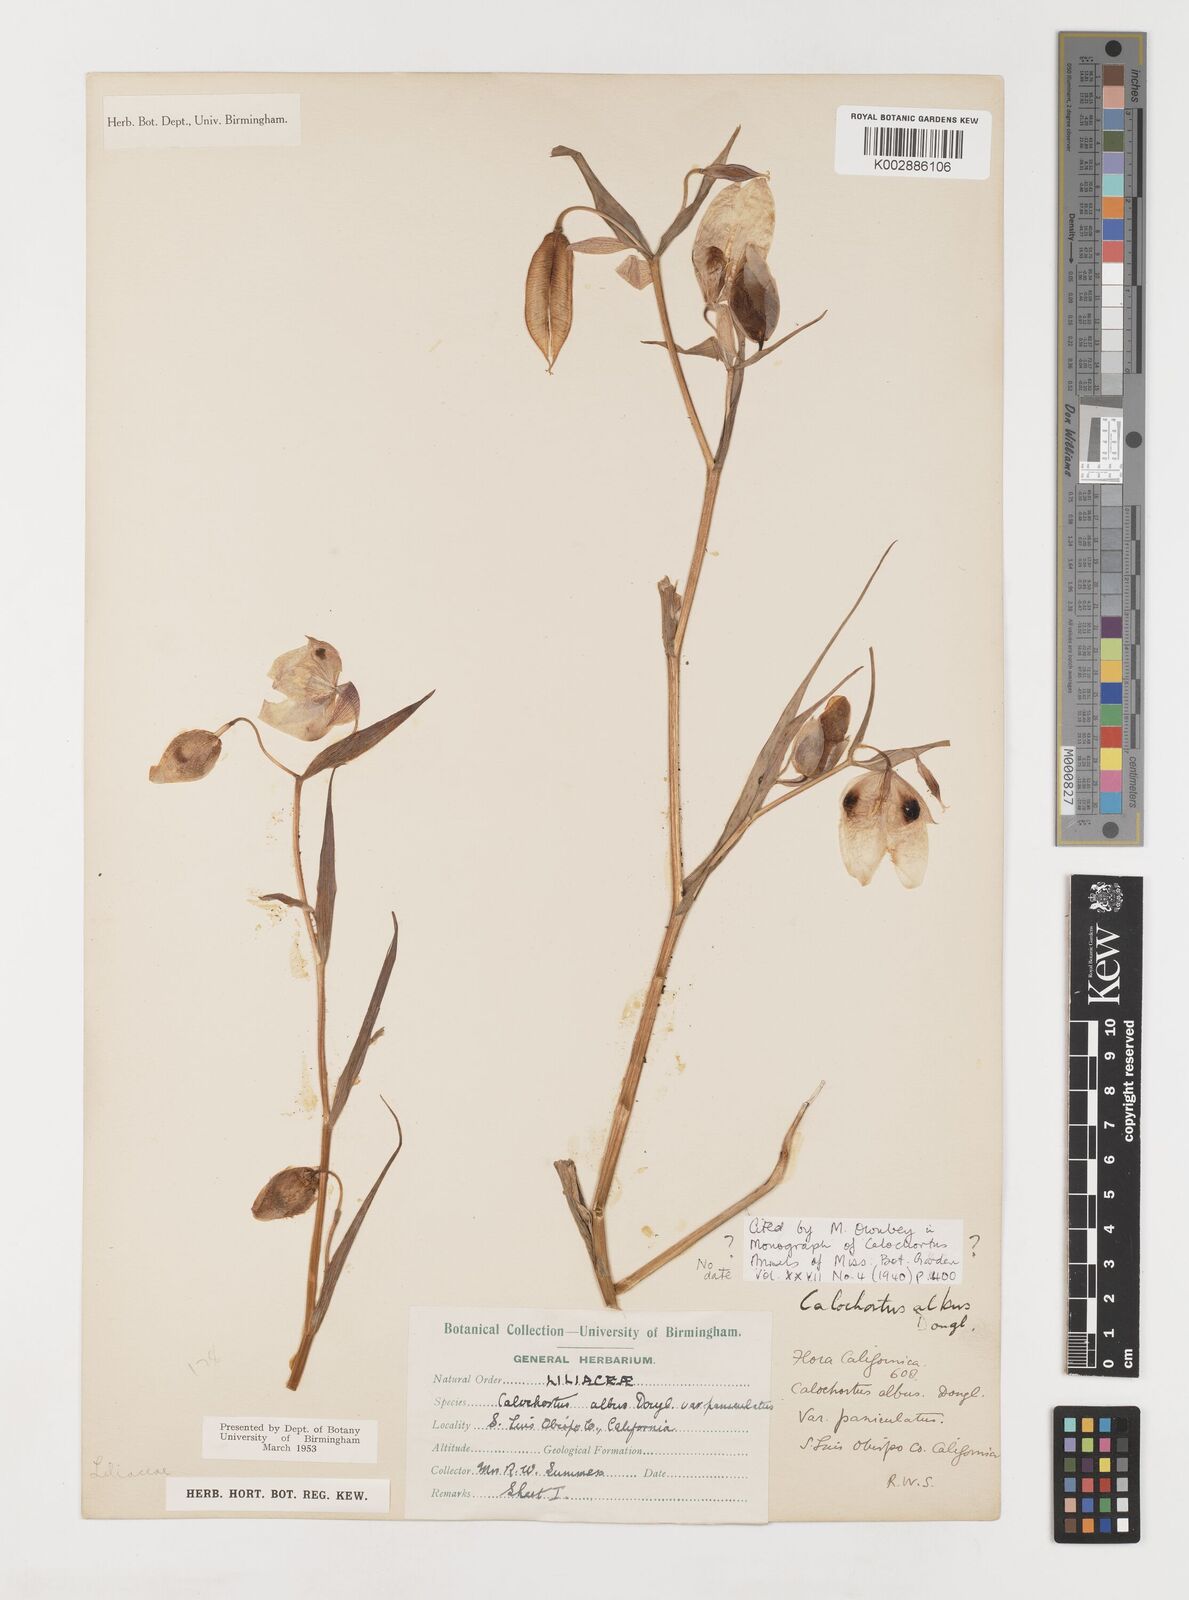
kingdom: Plantae
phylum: Tracheophyta
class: Liliopsida
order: Liliales
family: Liliaceae
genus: Calochortus
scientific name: Calochortus albus
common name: Fairy-lantern
